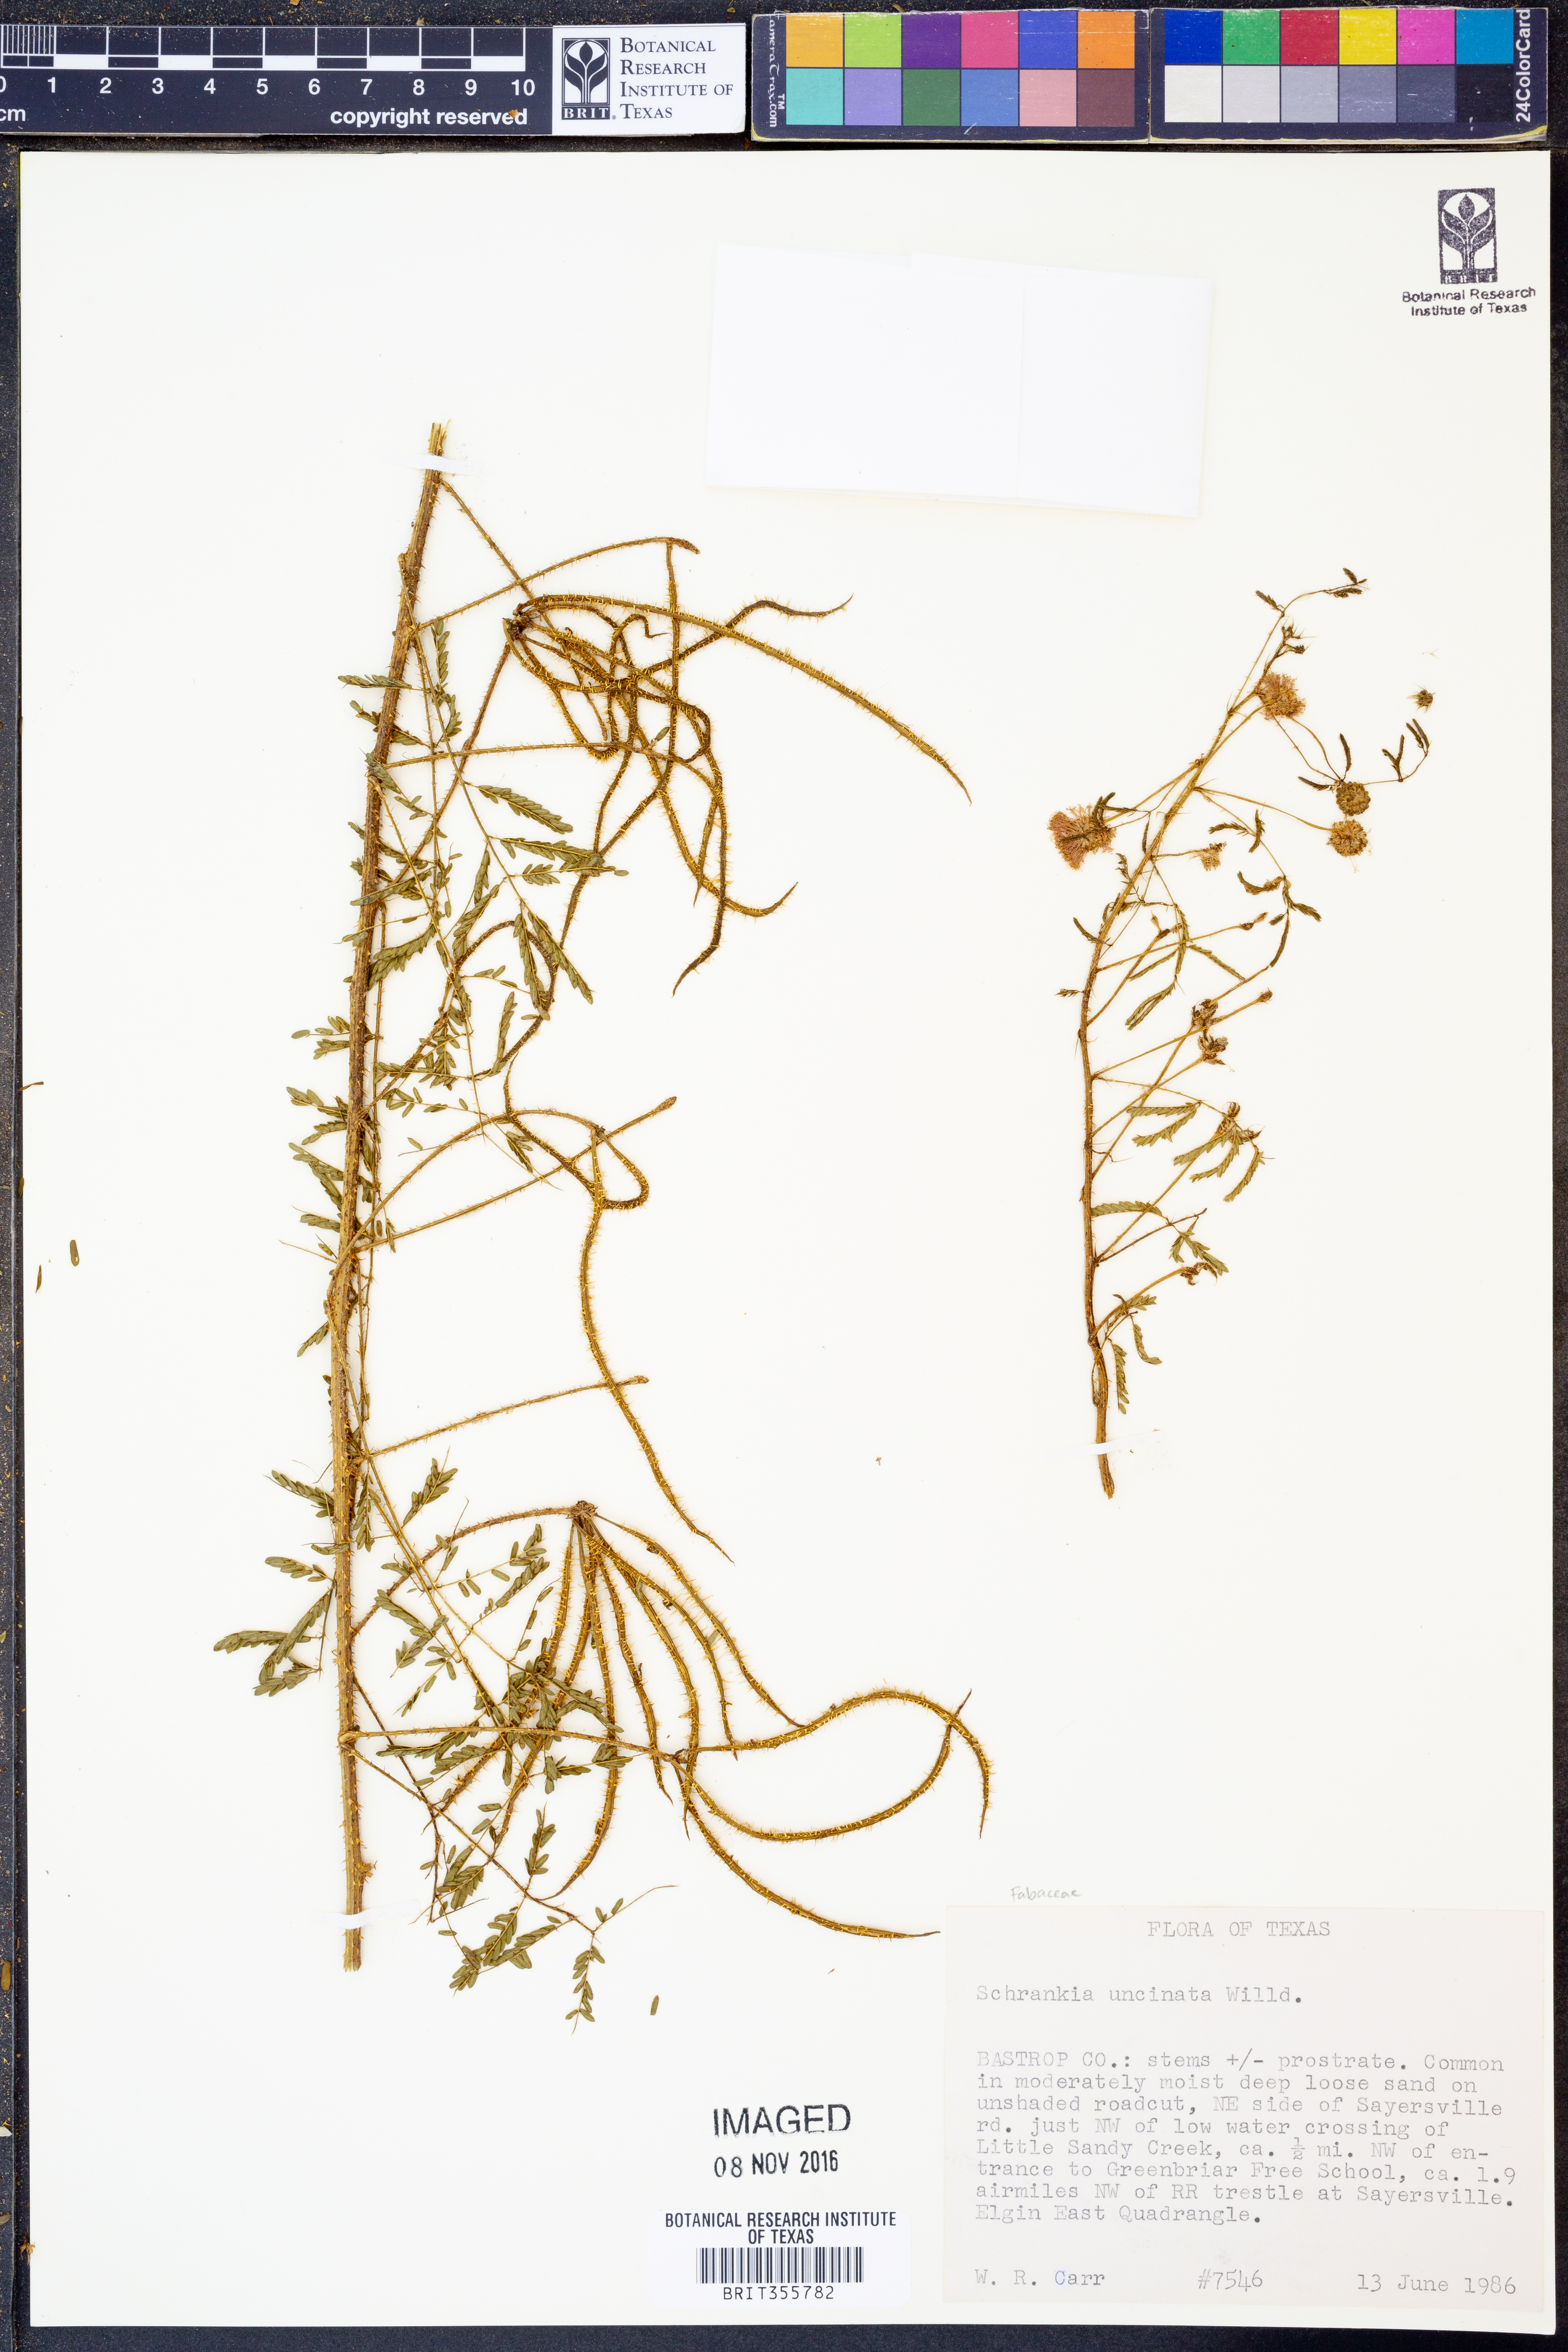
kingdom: Plantae
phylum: Tracheophyta
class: Magnoliopsida
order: Fabales
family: Fabaceae
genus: Mimosa
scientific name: Mimosa quadrivalvis
